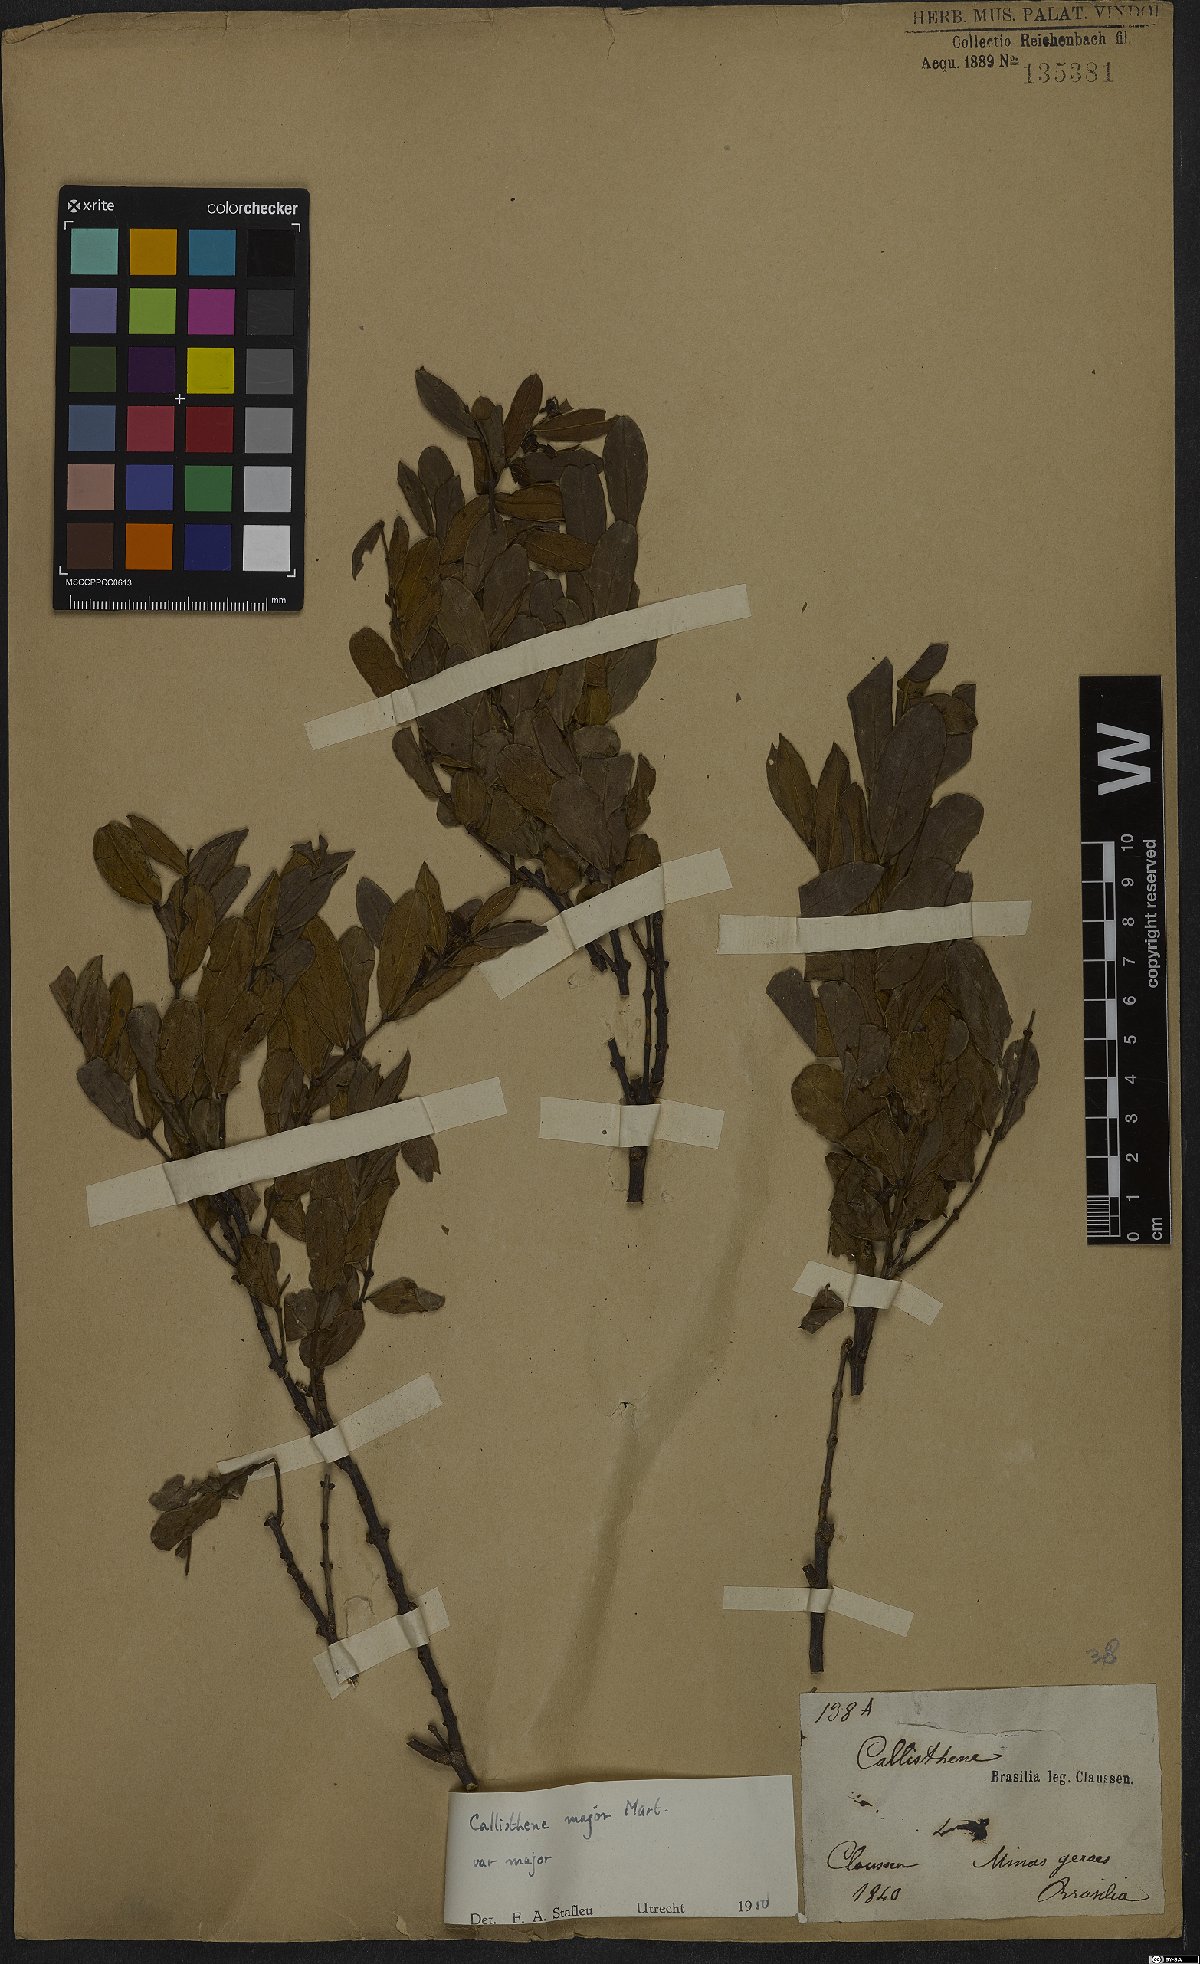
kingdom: Plantae
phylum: Tracheophyta
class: Magnoliopsida
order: Myrtales
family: Vochysiaceae
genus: Callisthene
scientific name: Callisthene major
